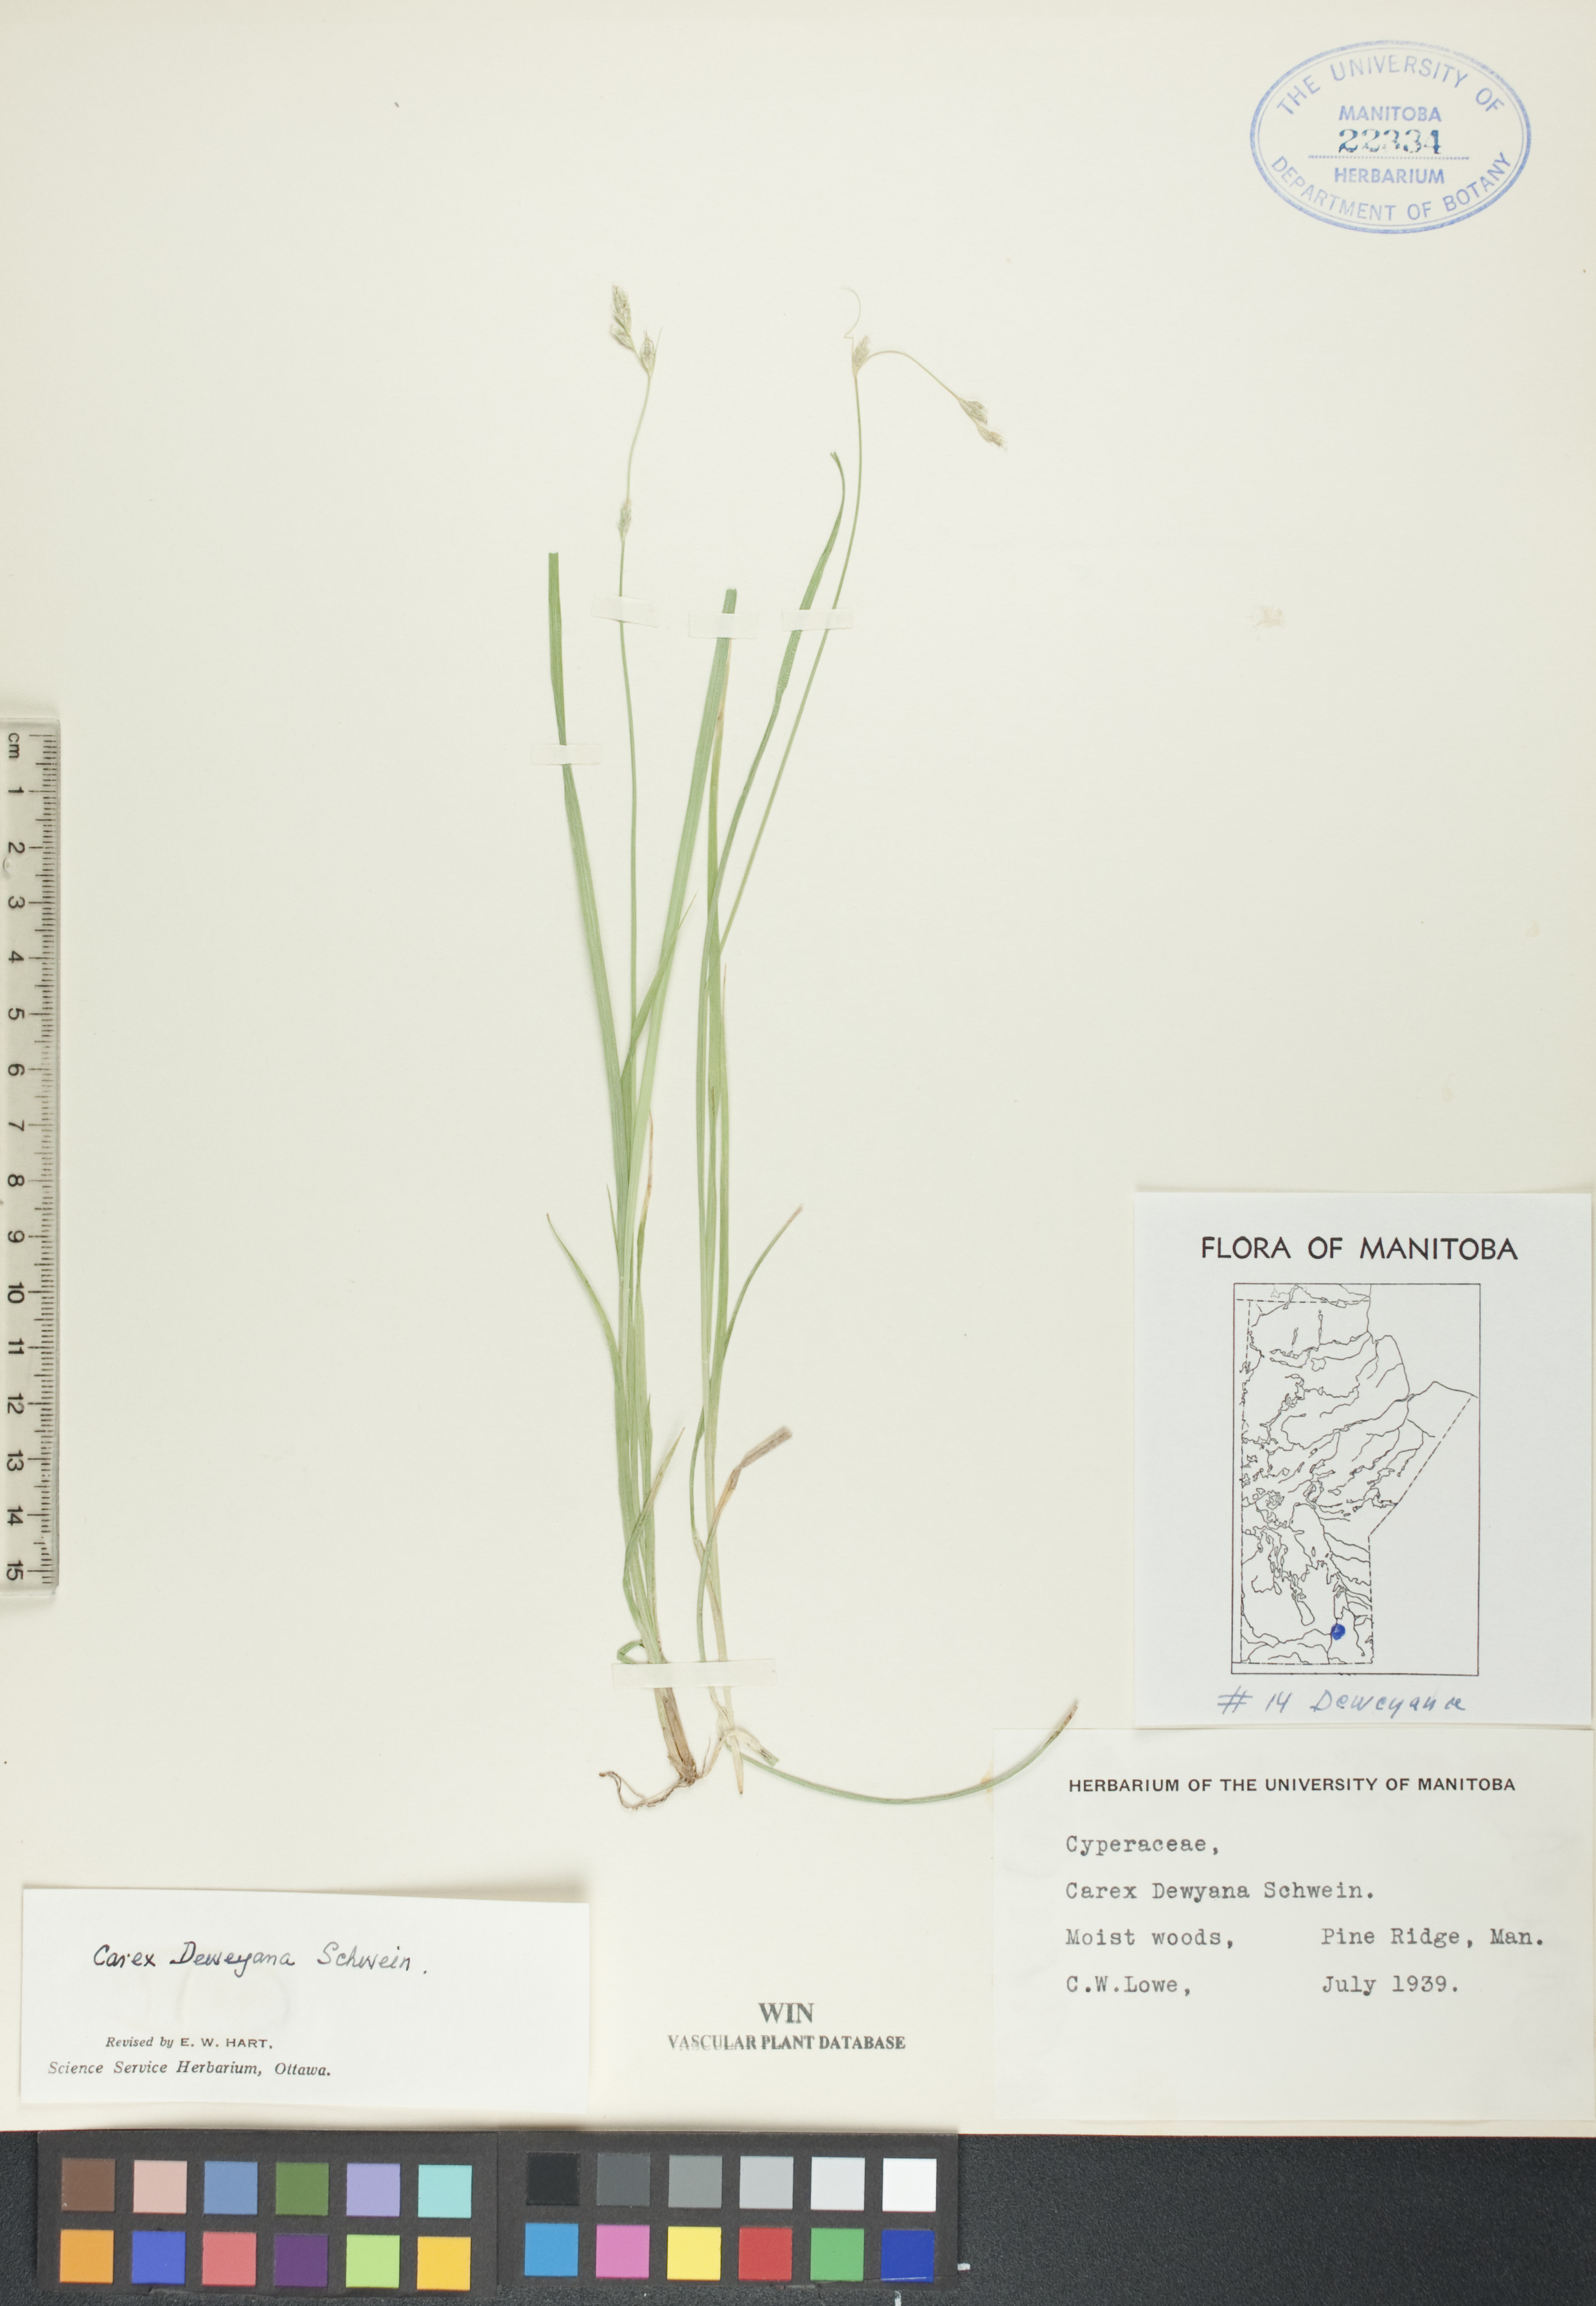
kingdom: Plantae
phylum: Tracheophyta
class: Liliopsida
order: Poales
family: Cyperaceae
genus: Carex
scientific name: Carex deweyana
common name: Dewey's sedge
